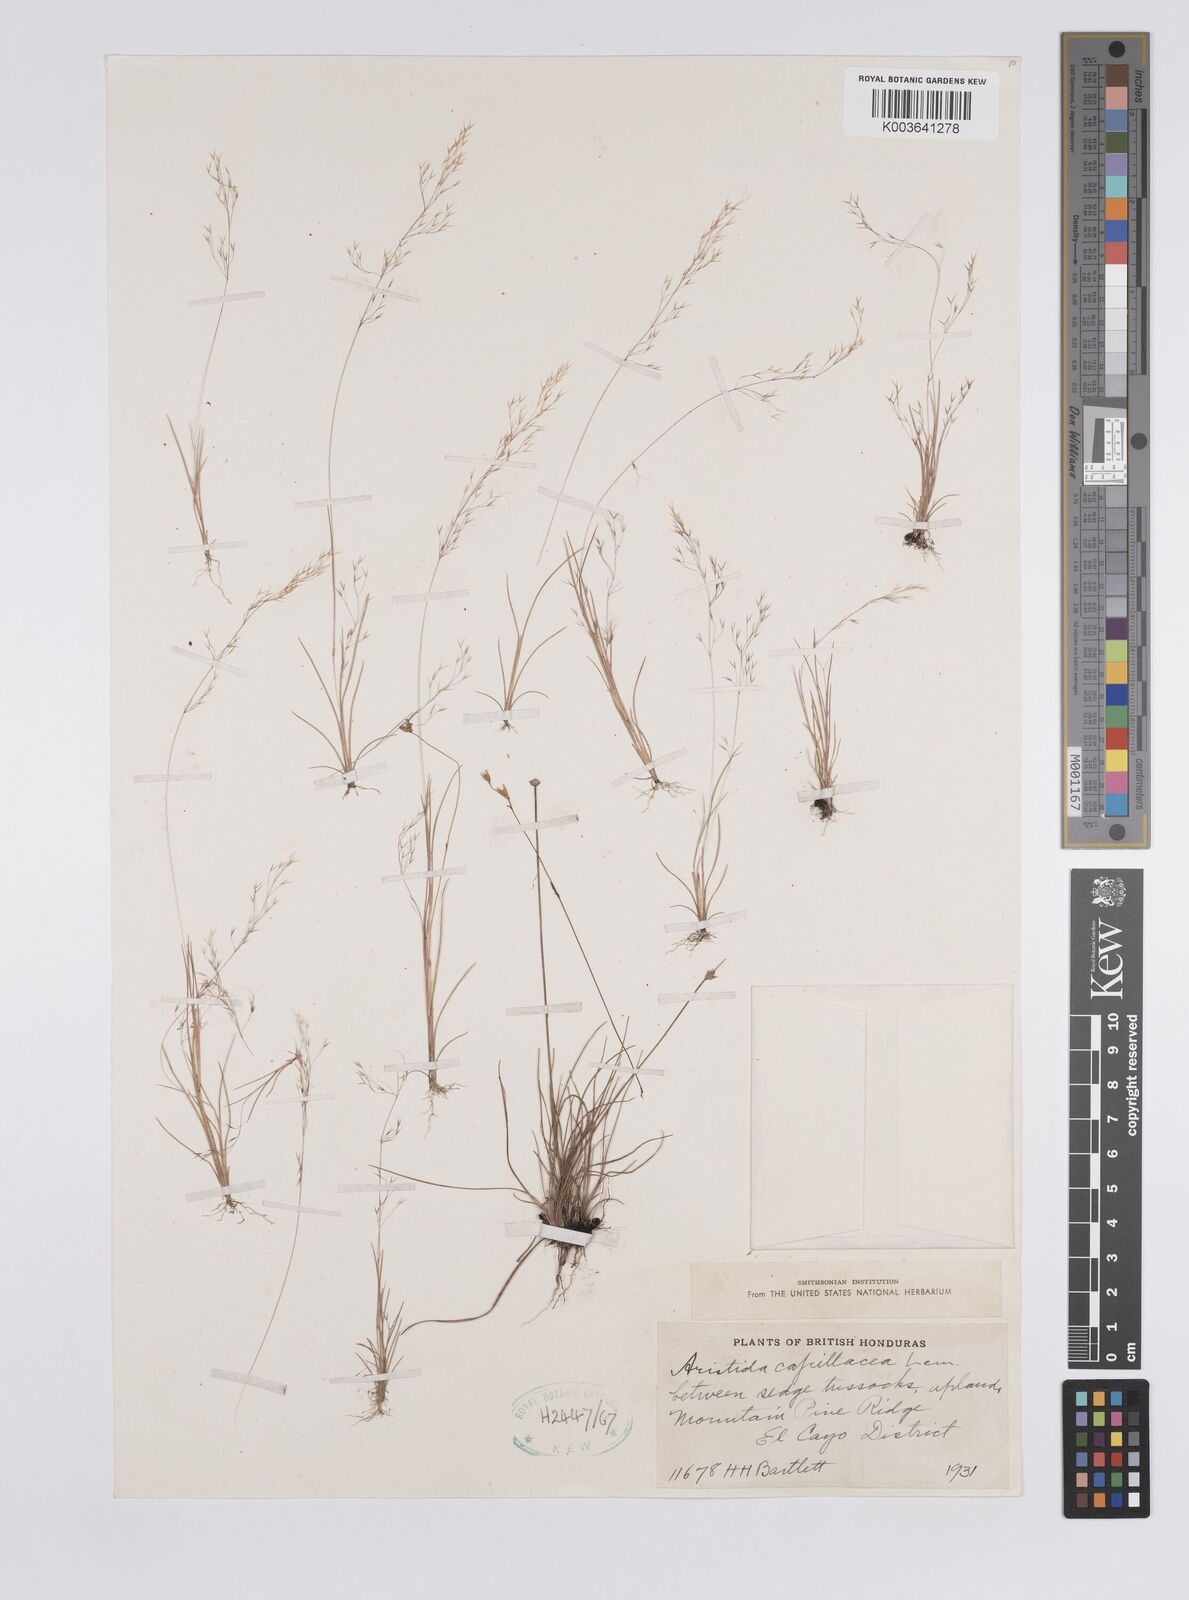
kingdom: Plantae
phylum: Tracheophyta
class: Liliopsida
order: Poales
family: Poaceae
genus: Aristida
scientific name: Aristida capillacea
